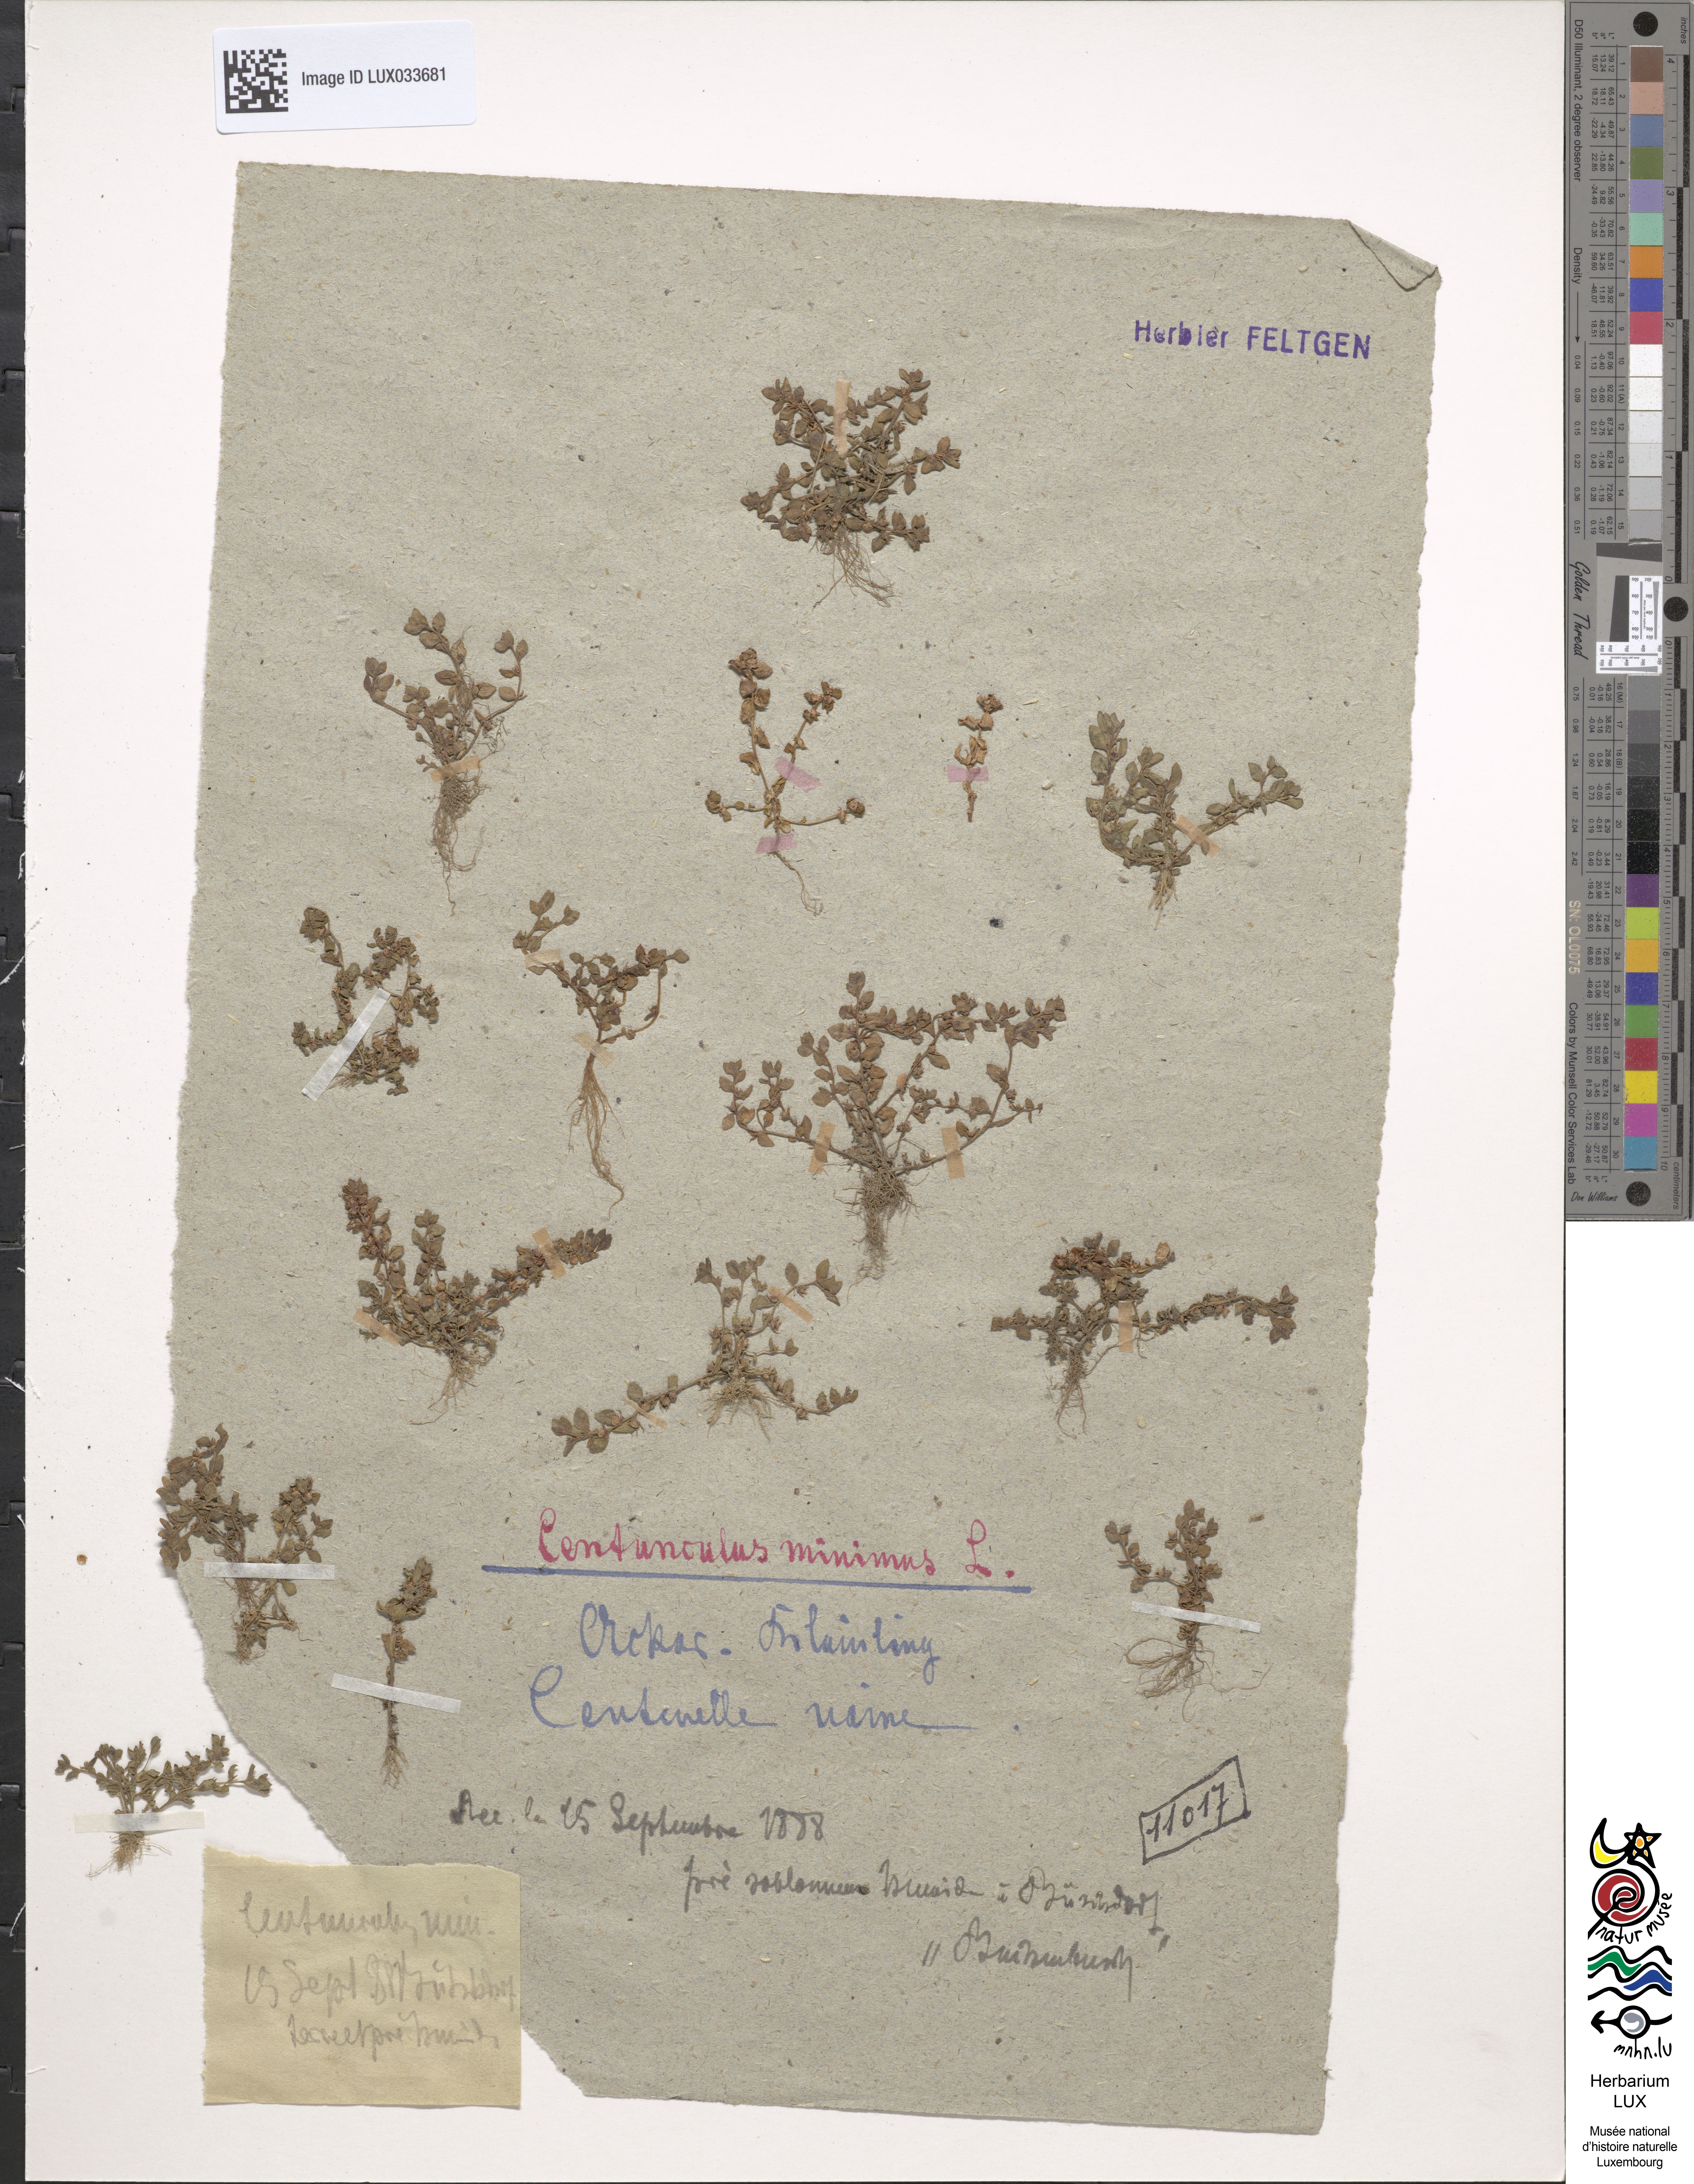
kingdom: Plantae
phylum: Tracheophyta
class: Magnoliopsida
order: Ericales
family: Primulaceae
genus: Lysimachia
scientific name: Lysimachia minima
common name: Chaffweed
